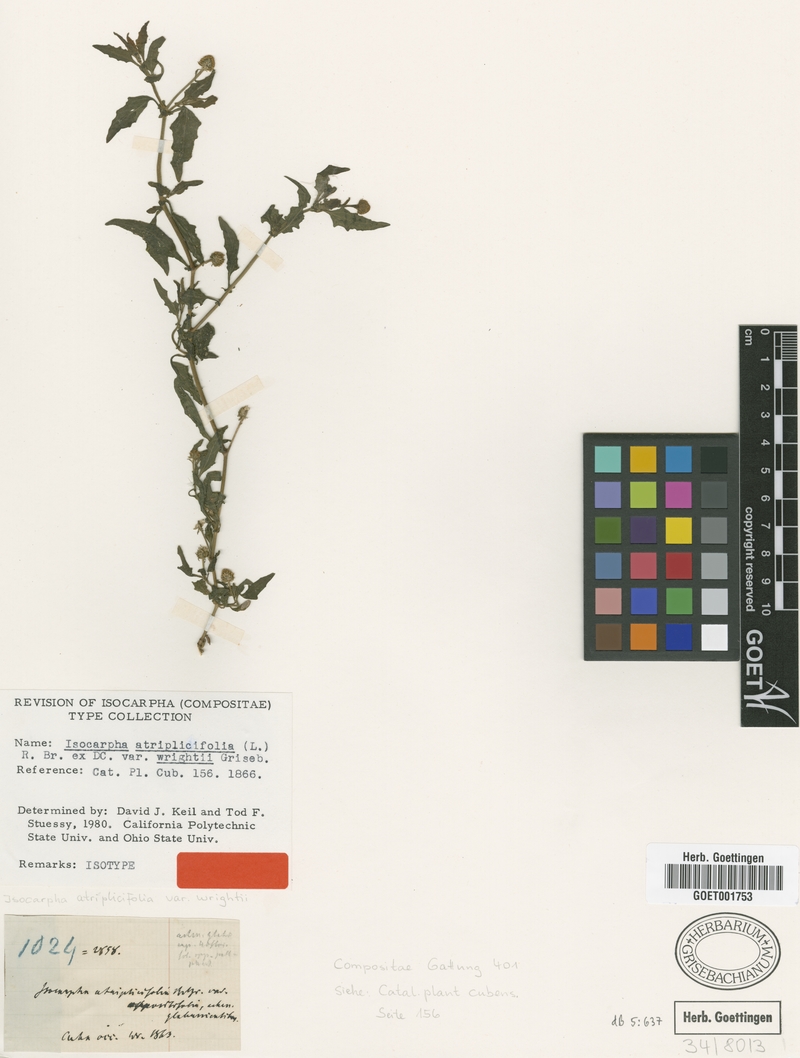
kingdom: Plantae
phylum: Tracheophyta
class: Magnoliopsida
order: Asterales
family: Asteraceae
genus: Isocarpha
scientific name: Isocarpha atriplicifolia
